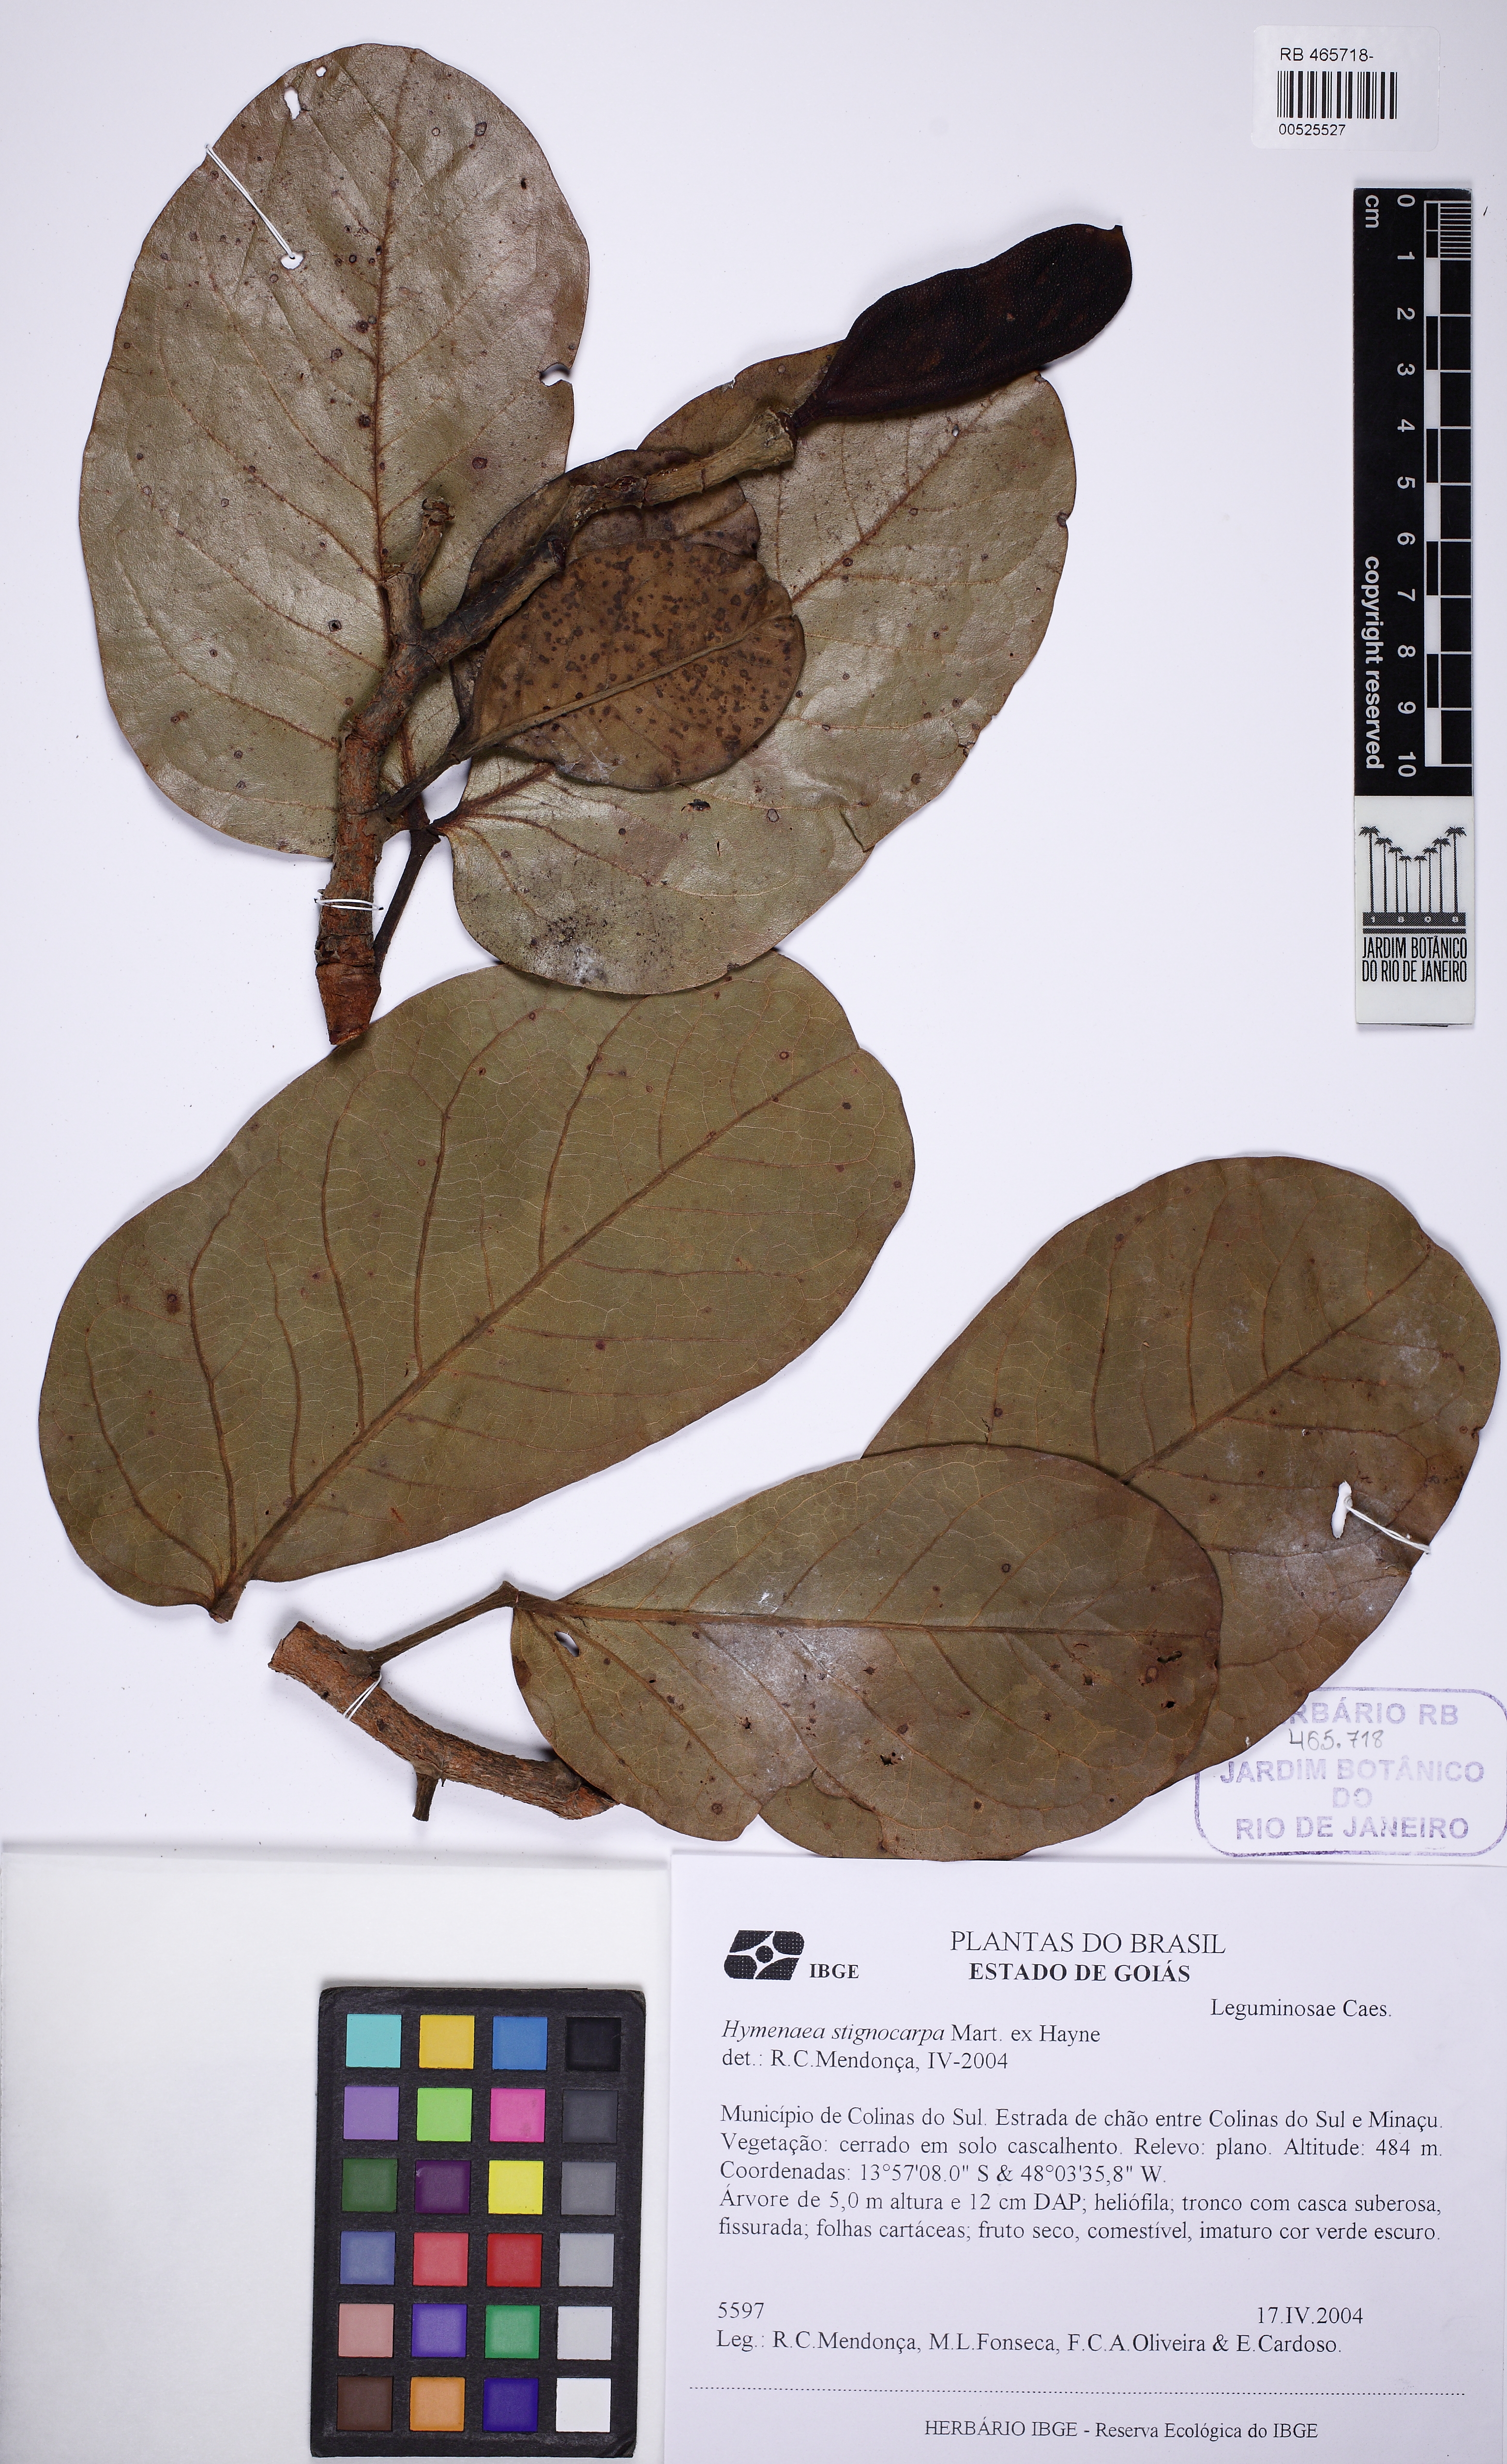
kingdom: Plantae
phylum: Tracheophyta
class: Magnoliopsida
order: Fabales
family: Fabaceae
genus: Hymenaea
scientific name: Hymenaea stigonocarpa
